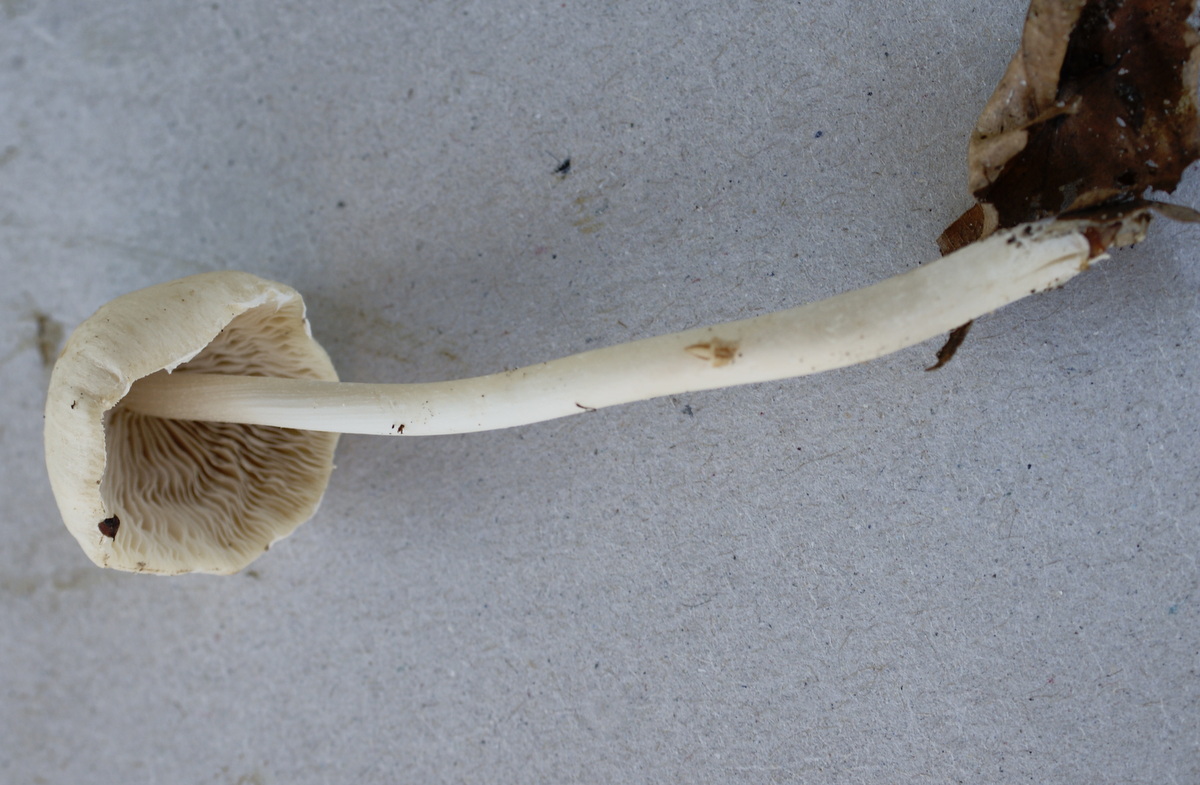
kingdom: Fungi
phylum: Basidiomycota
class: Agaricomycetes
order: Agaricales
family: Psathyrellaceae
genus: Candolleomyces
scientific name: Candolleomyces candolleanus
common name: Candolles mørkhat
